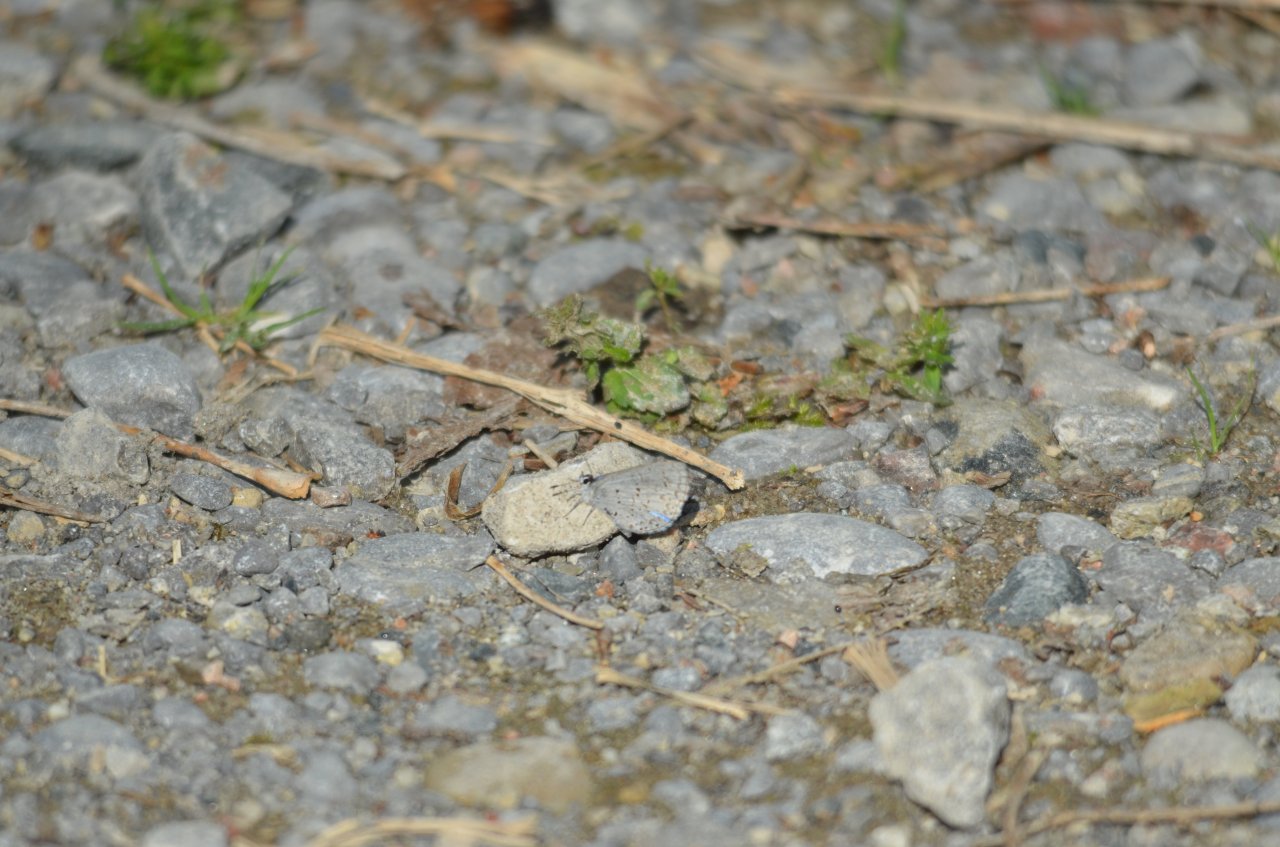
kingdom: Animalia
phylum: Arthropoda
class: Insecta
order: Lepidoptera
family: Lycaenidae
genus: Celastrina
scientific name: Celastrina
